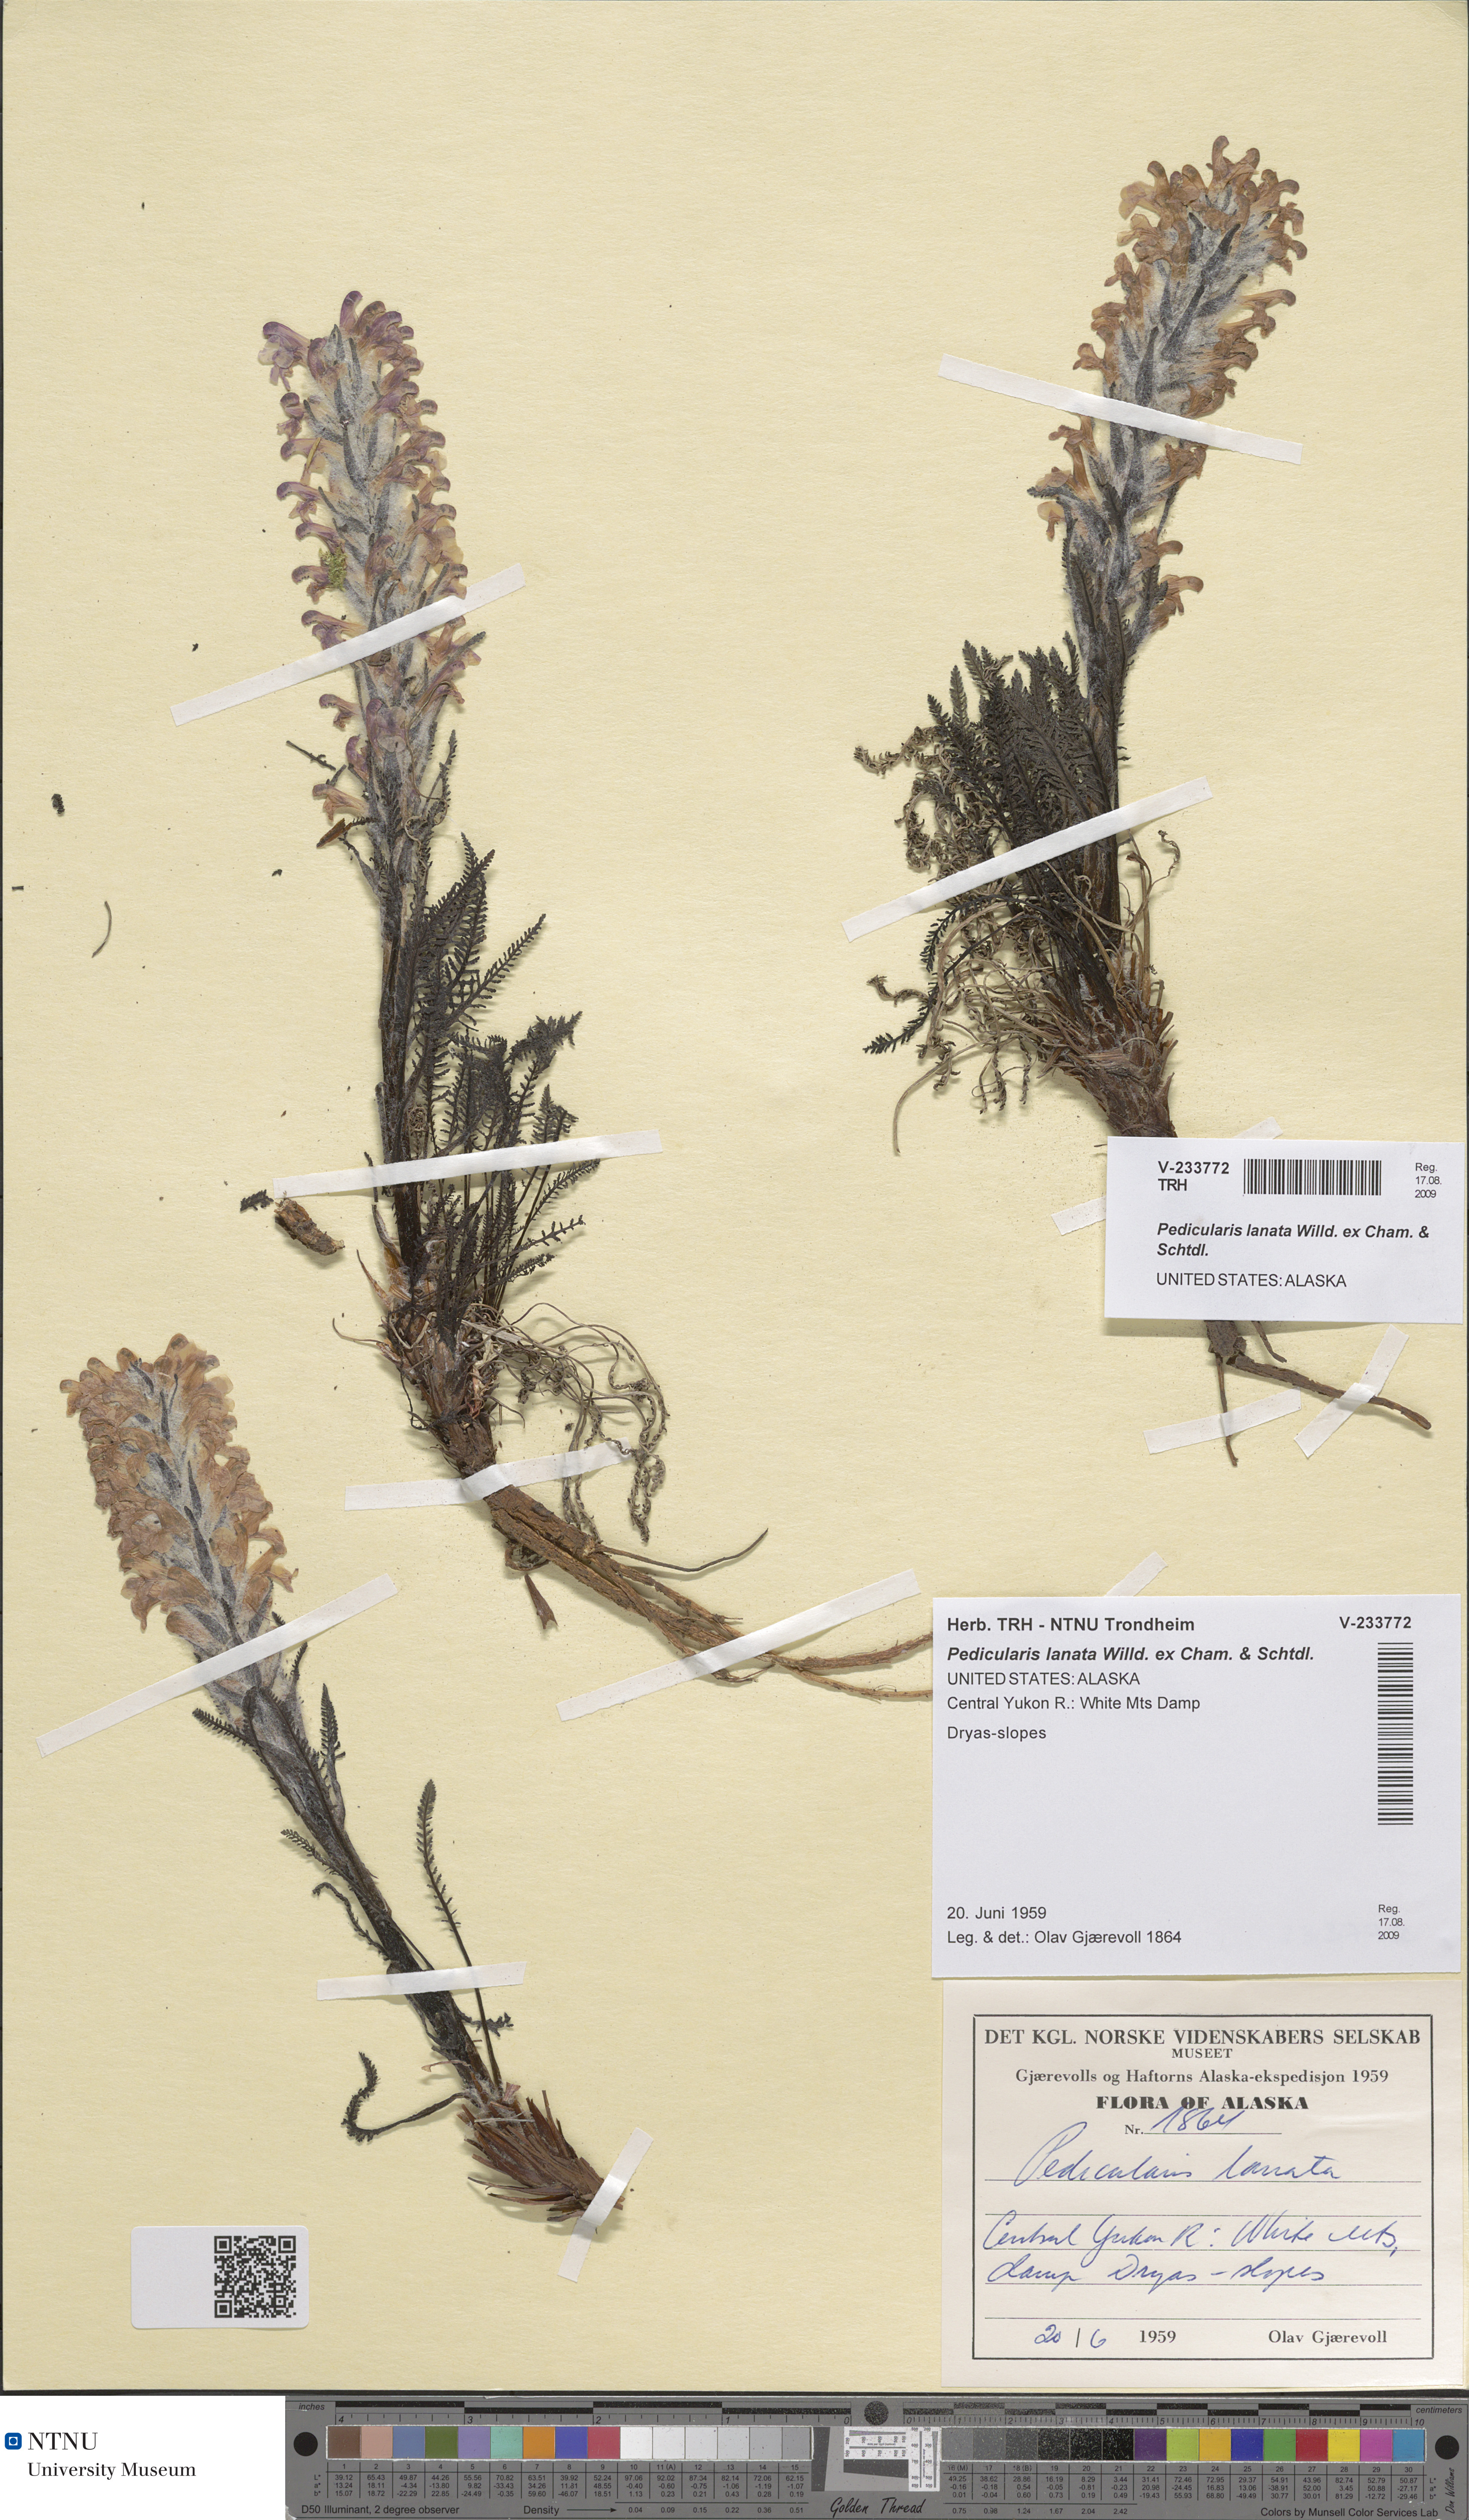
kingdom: Plantae
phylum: Tracheophyta
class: Magnoliopsida
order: Lamiales
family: Orobanchaceae
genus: Pedicularis
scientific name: Pedicularis lanata
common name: Woolly lousewort
